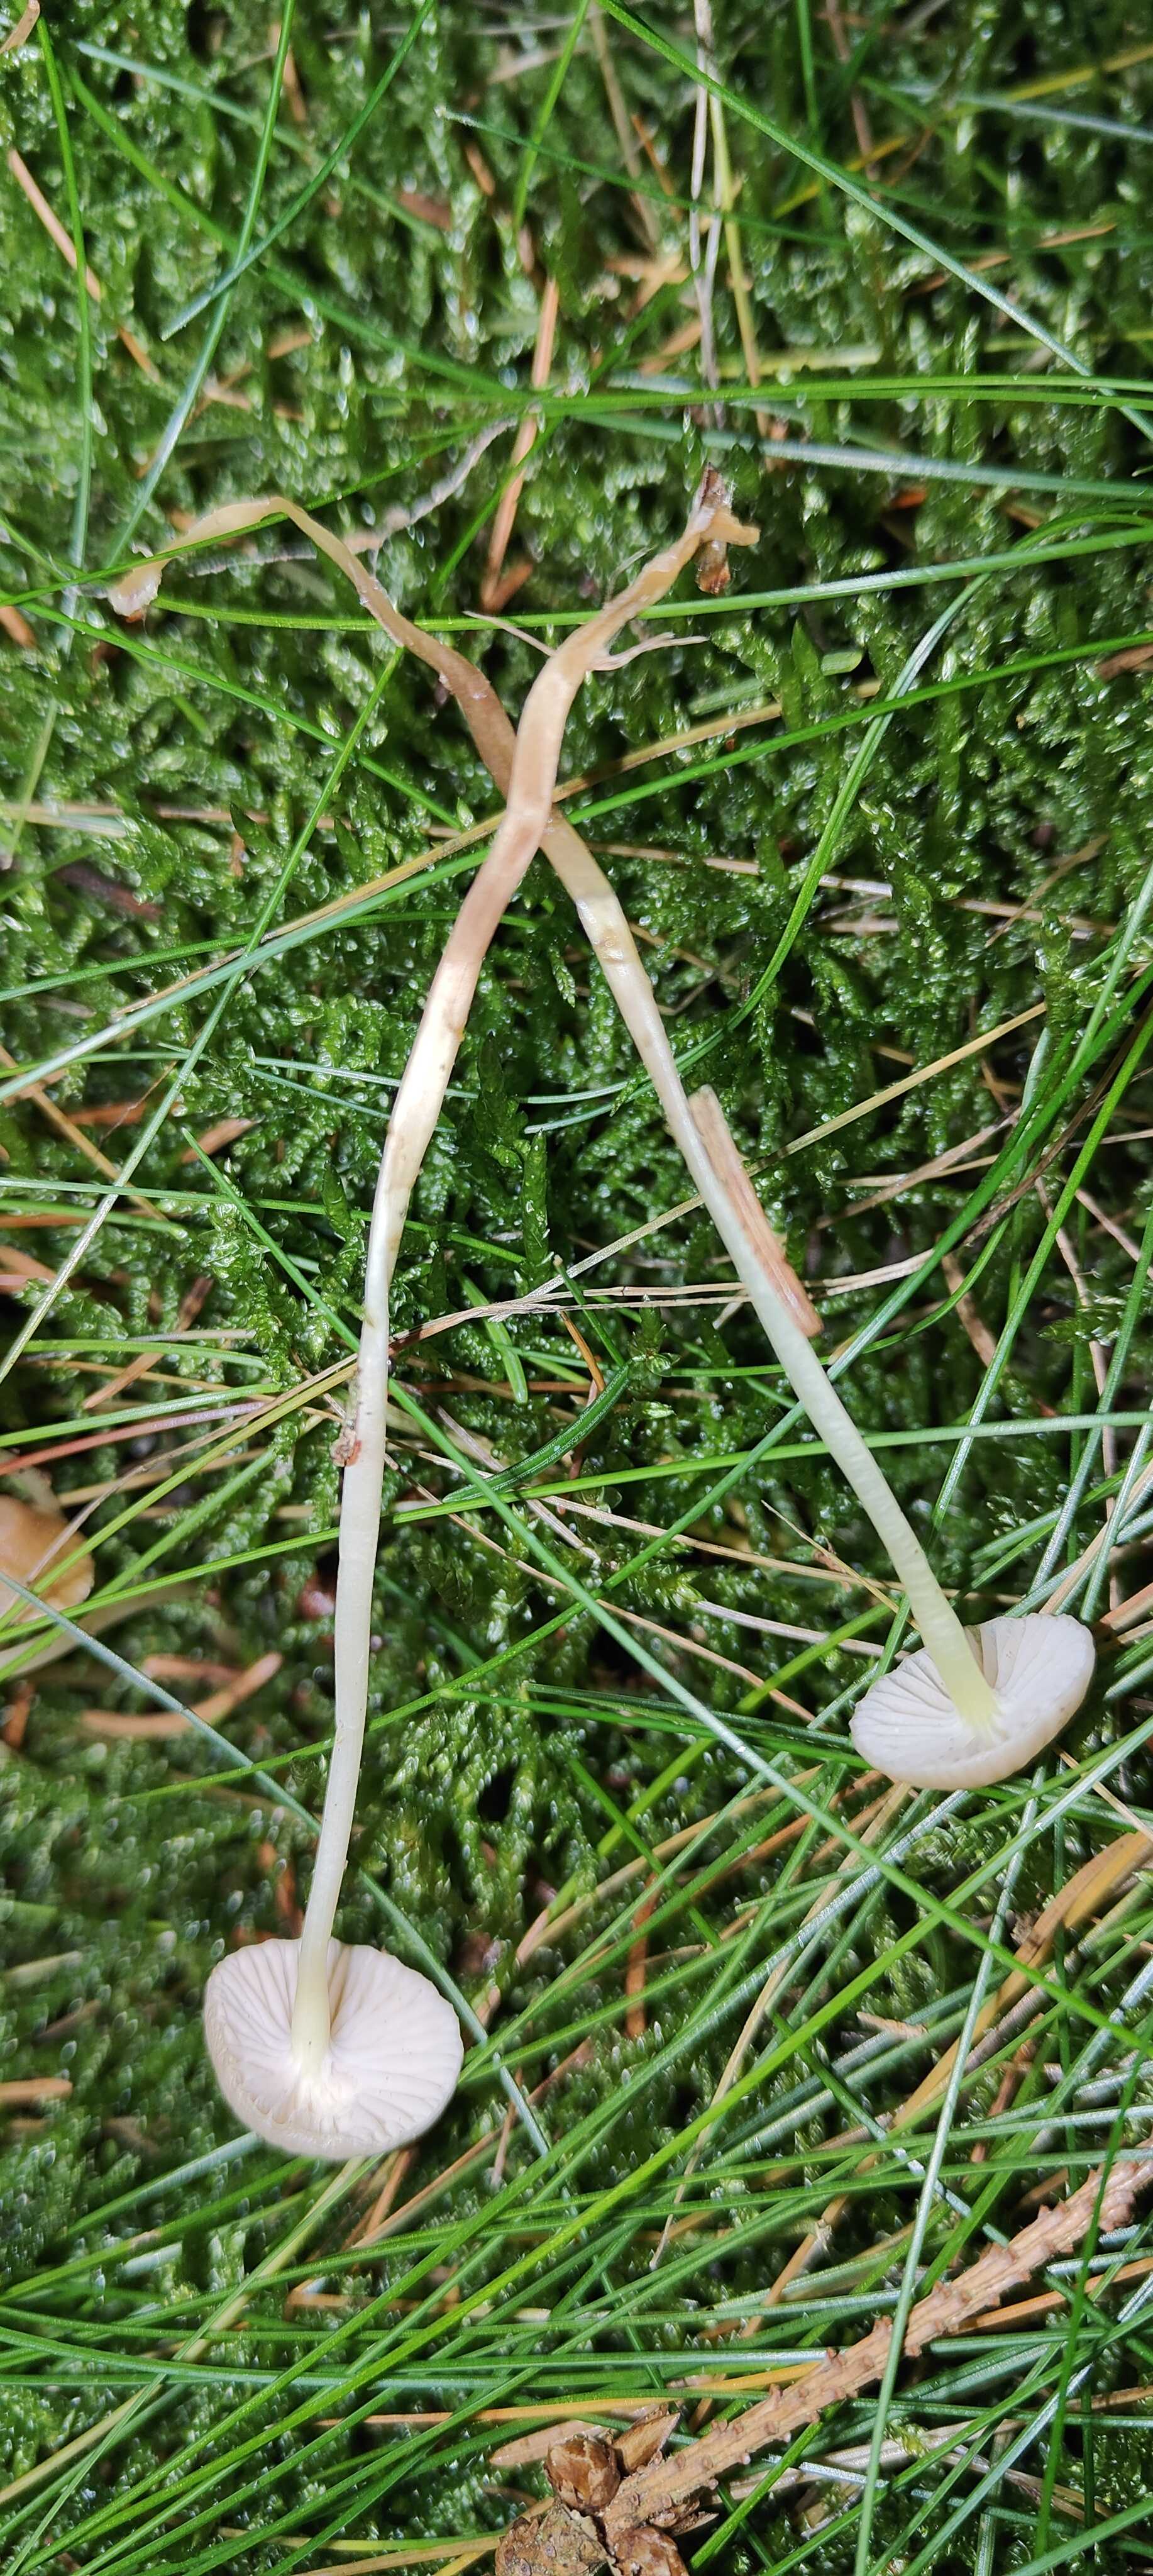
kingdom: Fungi
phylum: Basidiomycota
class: Agaricomycetes
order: Agaricales
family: Mycenaceae
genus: Mycena
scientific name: Mycena epipterygia
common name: gulstokket huesvamp
